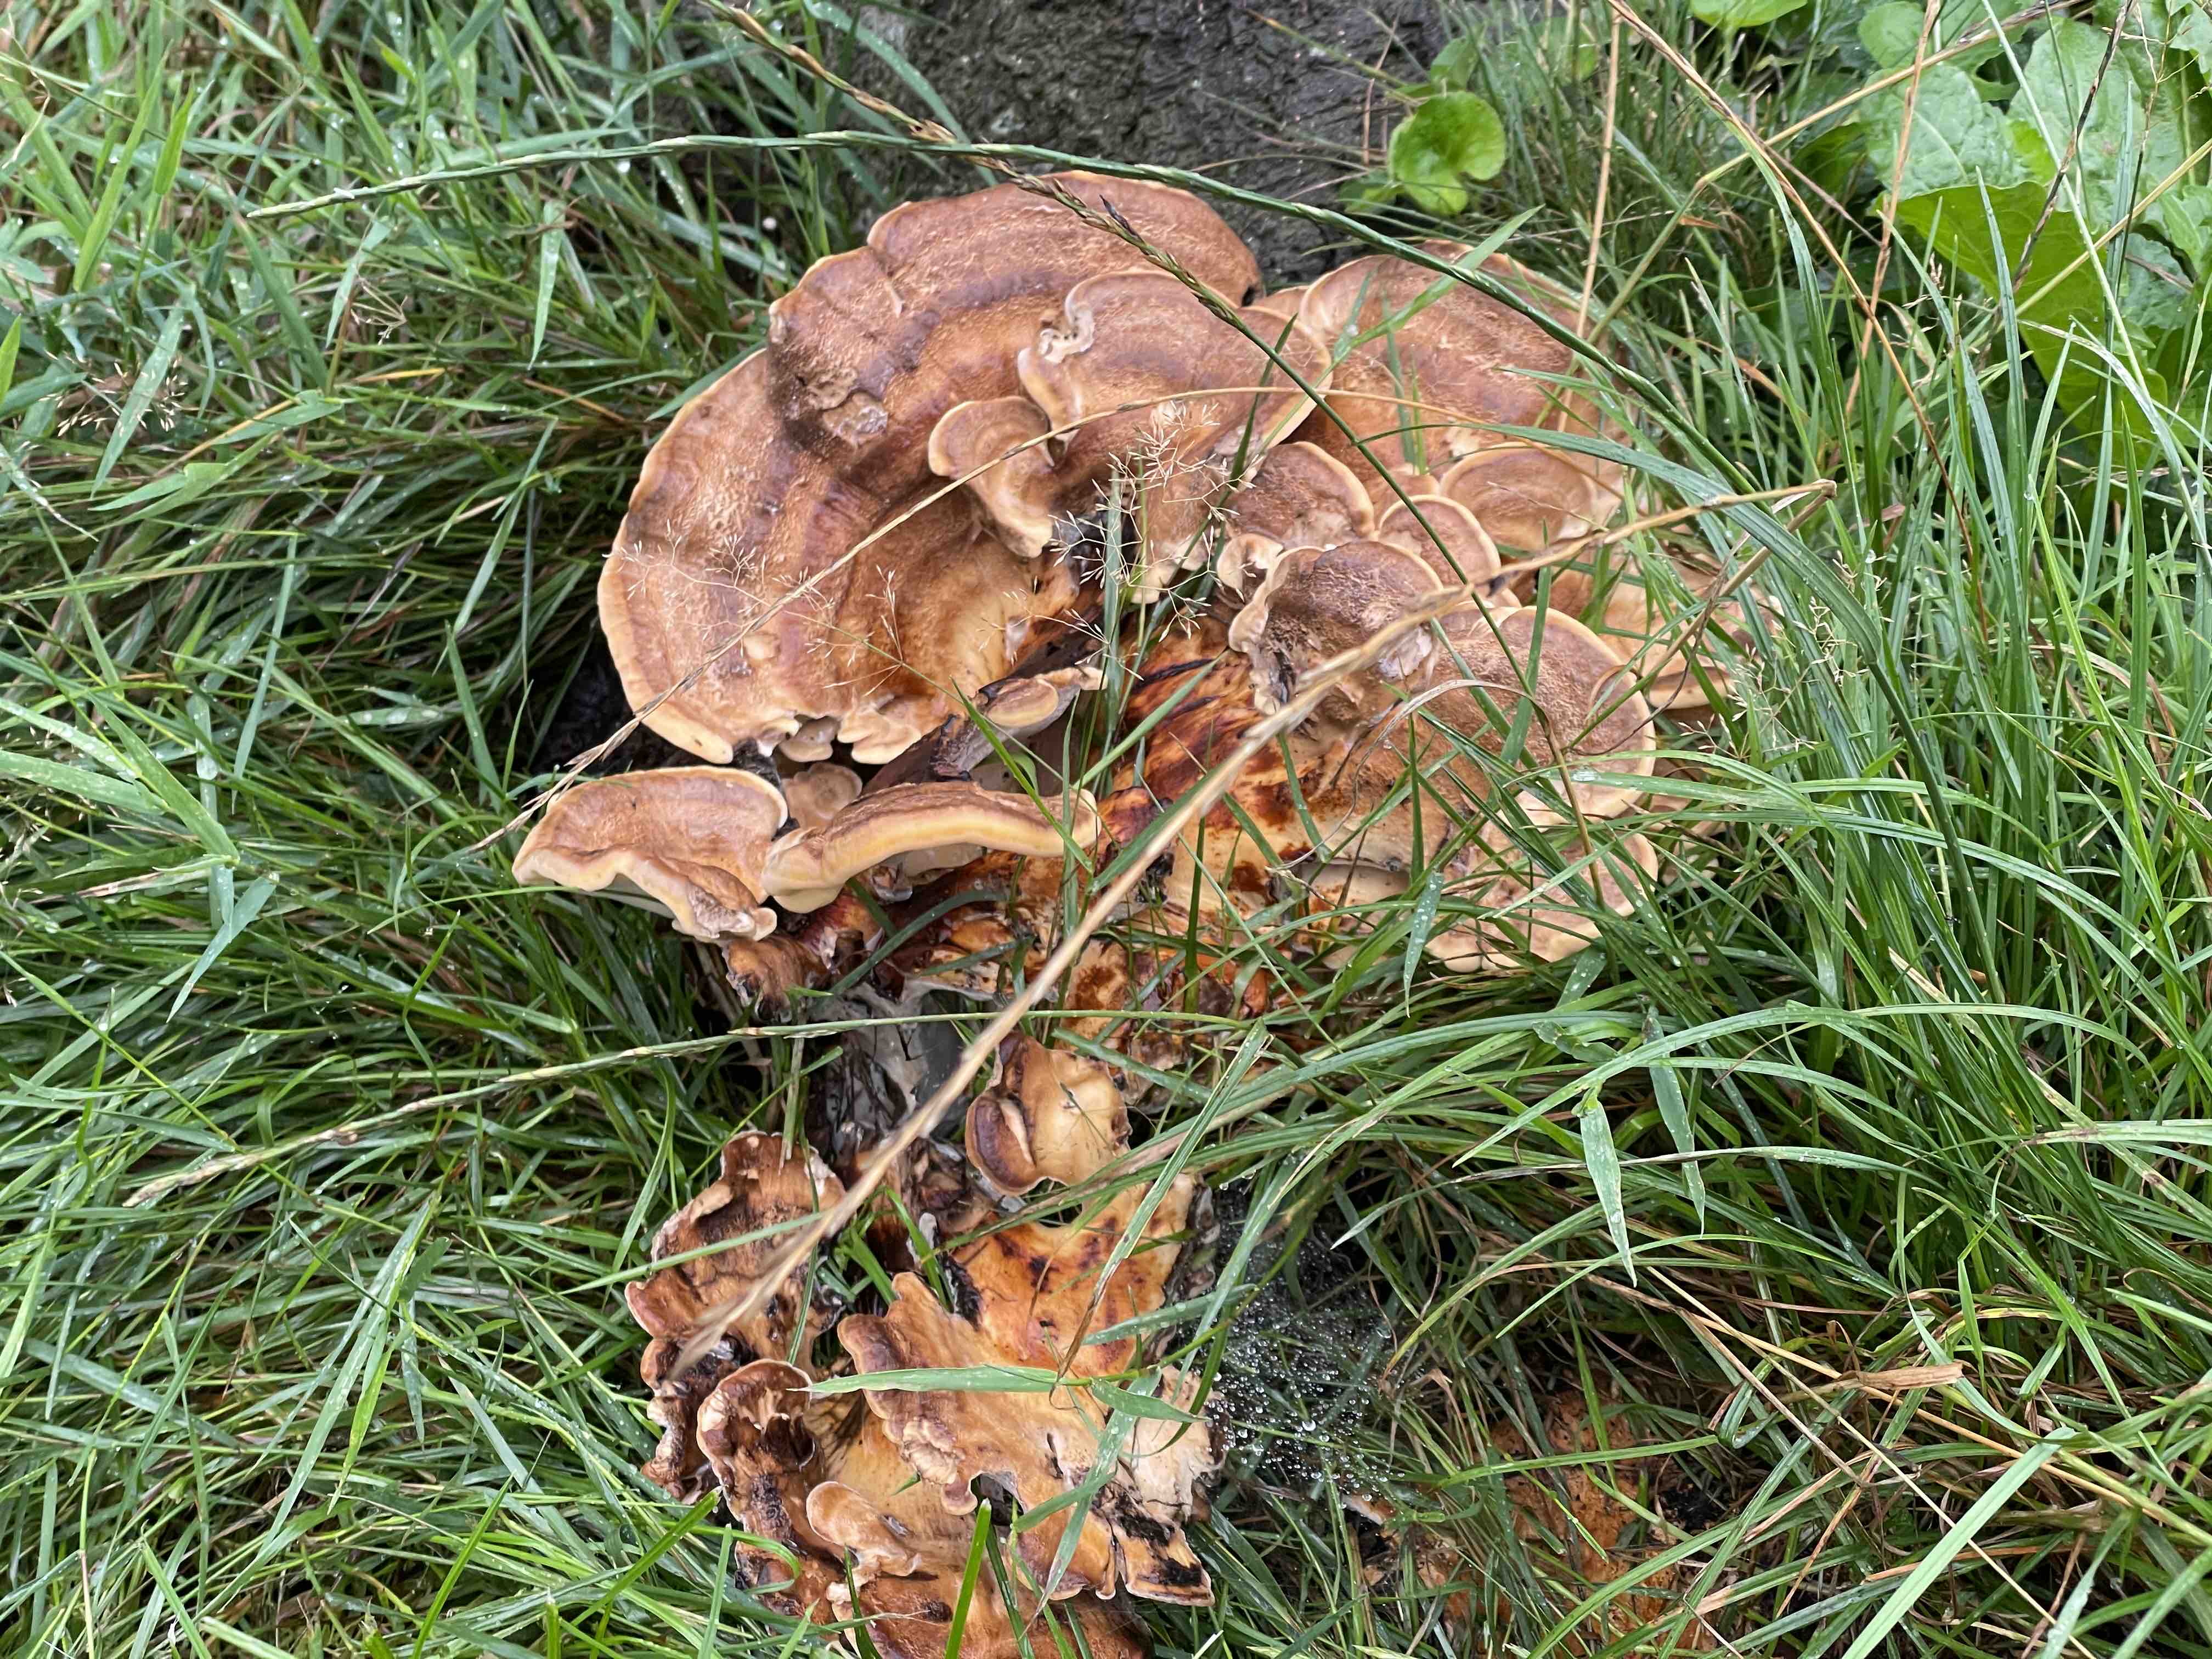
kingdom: Fungi
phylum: Basidiomycota
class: Agaricomycetes
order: Polyporales
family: Meripilaceae
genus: Meripilus
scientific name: Meripilus giganteus
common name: kæmpeporesvamp
